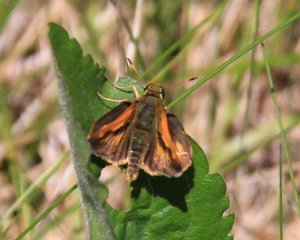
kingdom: Animalia
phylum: Arthropoda
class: Insecta
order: Lepidoptera
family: Hesperiidae
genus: Polites
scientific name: Polites
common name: Long Dash Skipper
